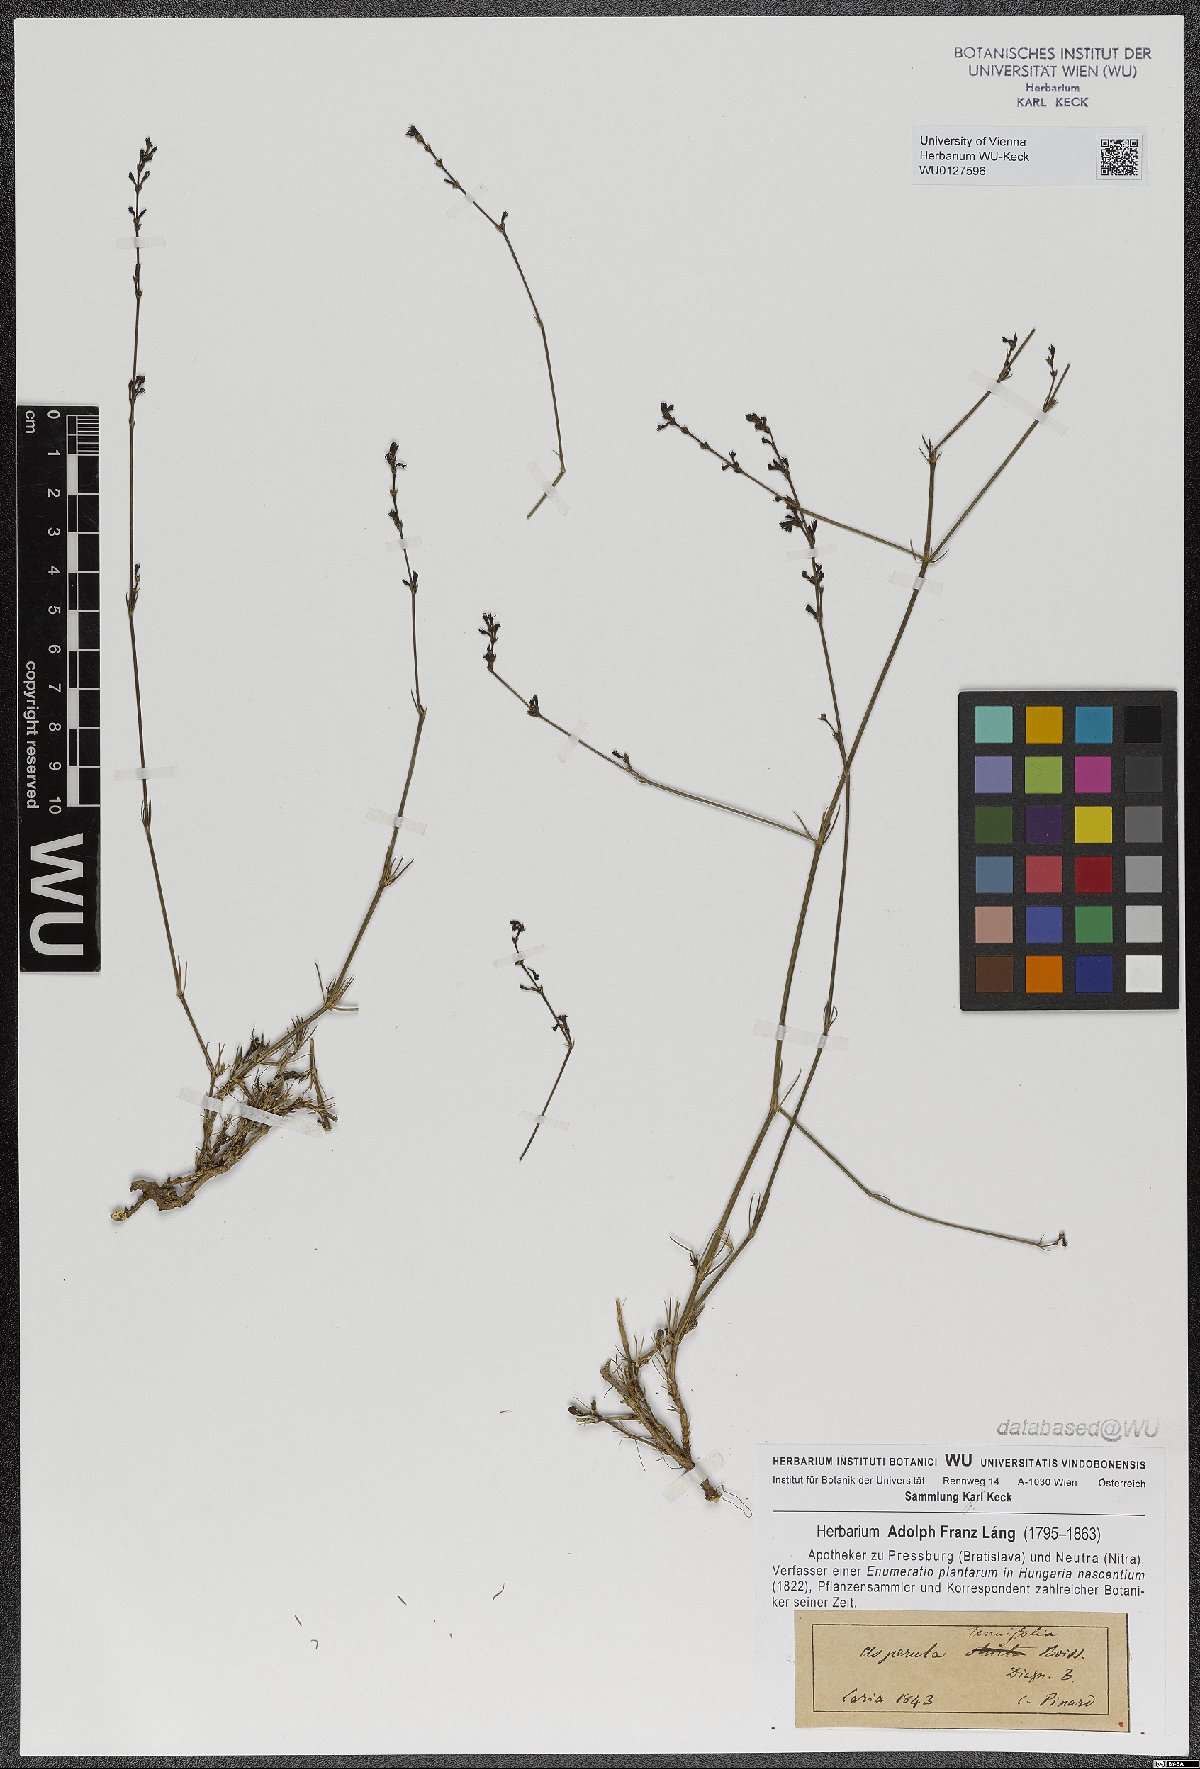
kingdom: Plantae
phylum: Tracheophyta
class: Magnoliopsida
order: Gentianales
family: Rubiaceae
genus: Cynanchica
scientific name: Cynanchica tenuifolia
